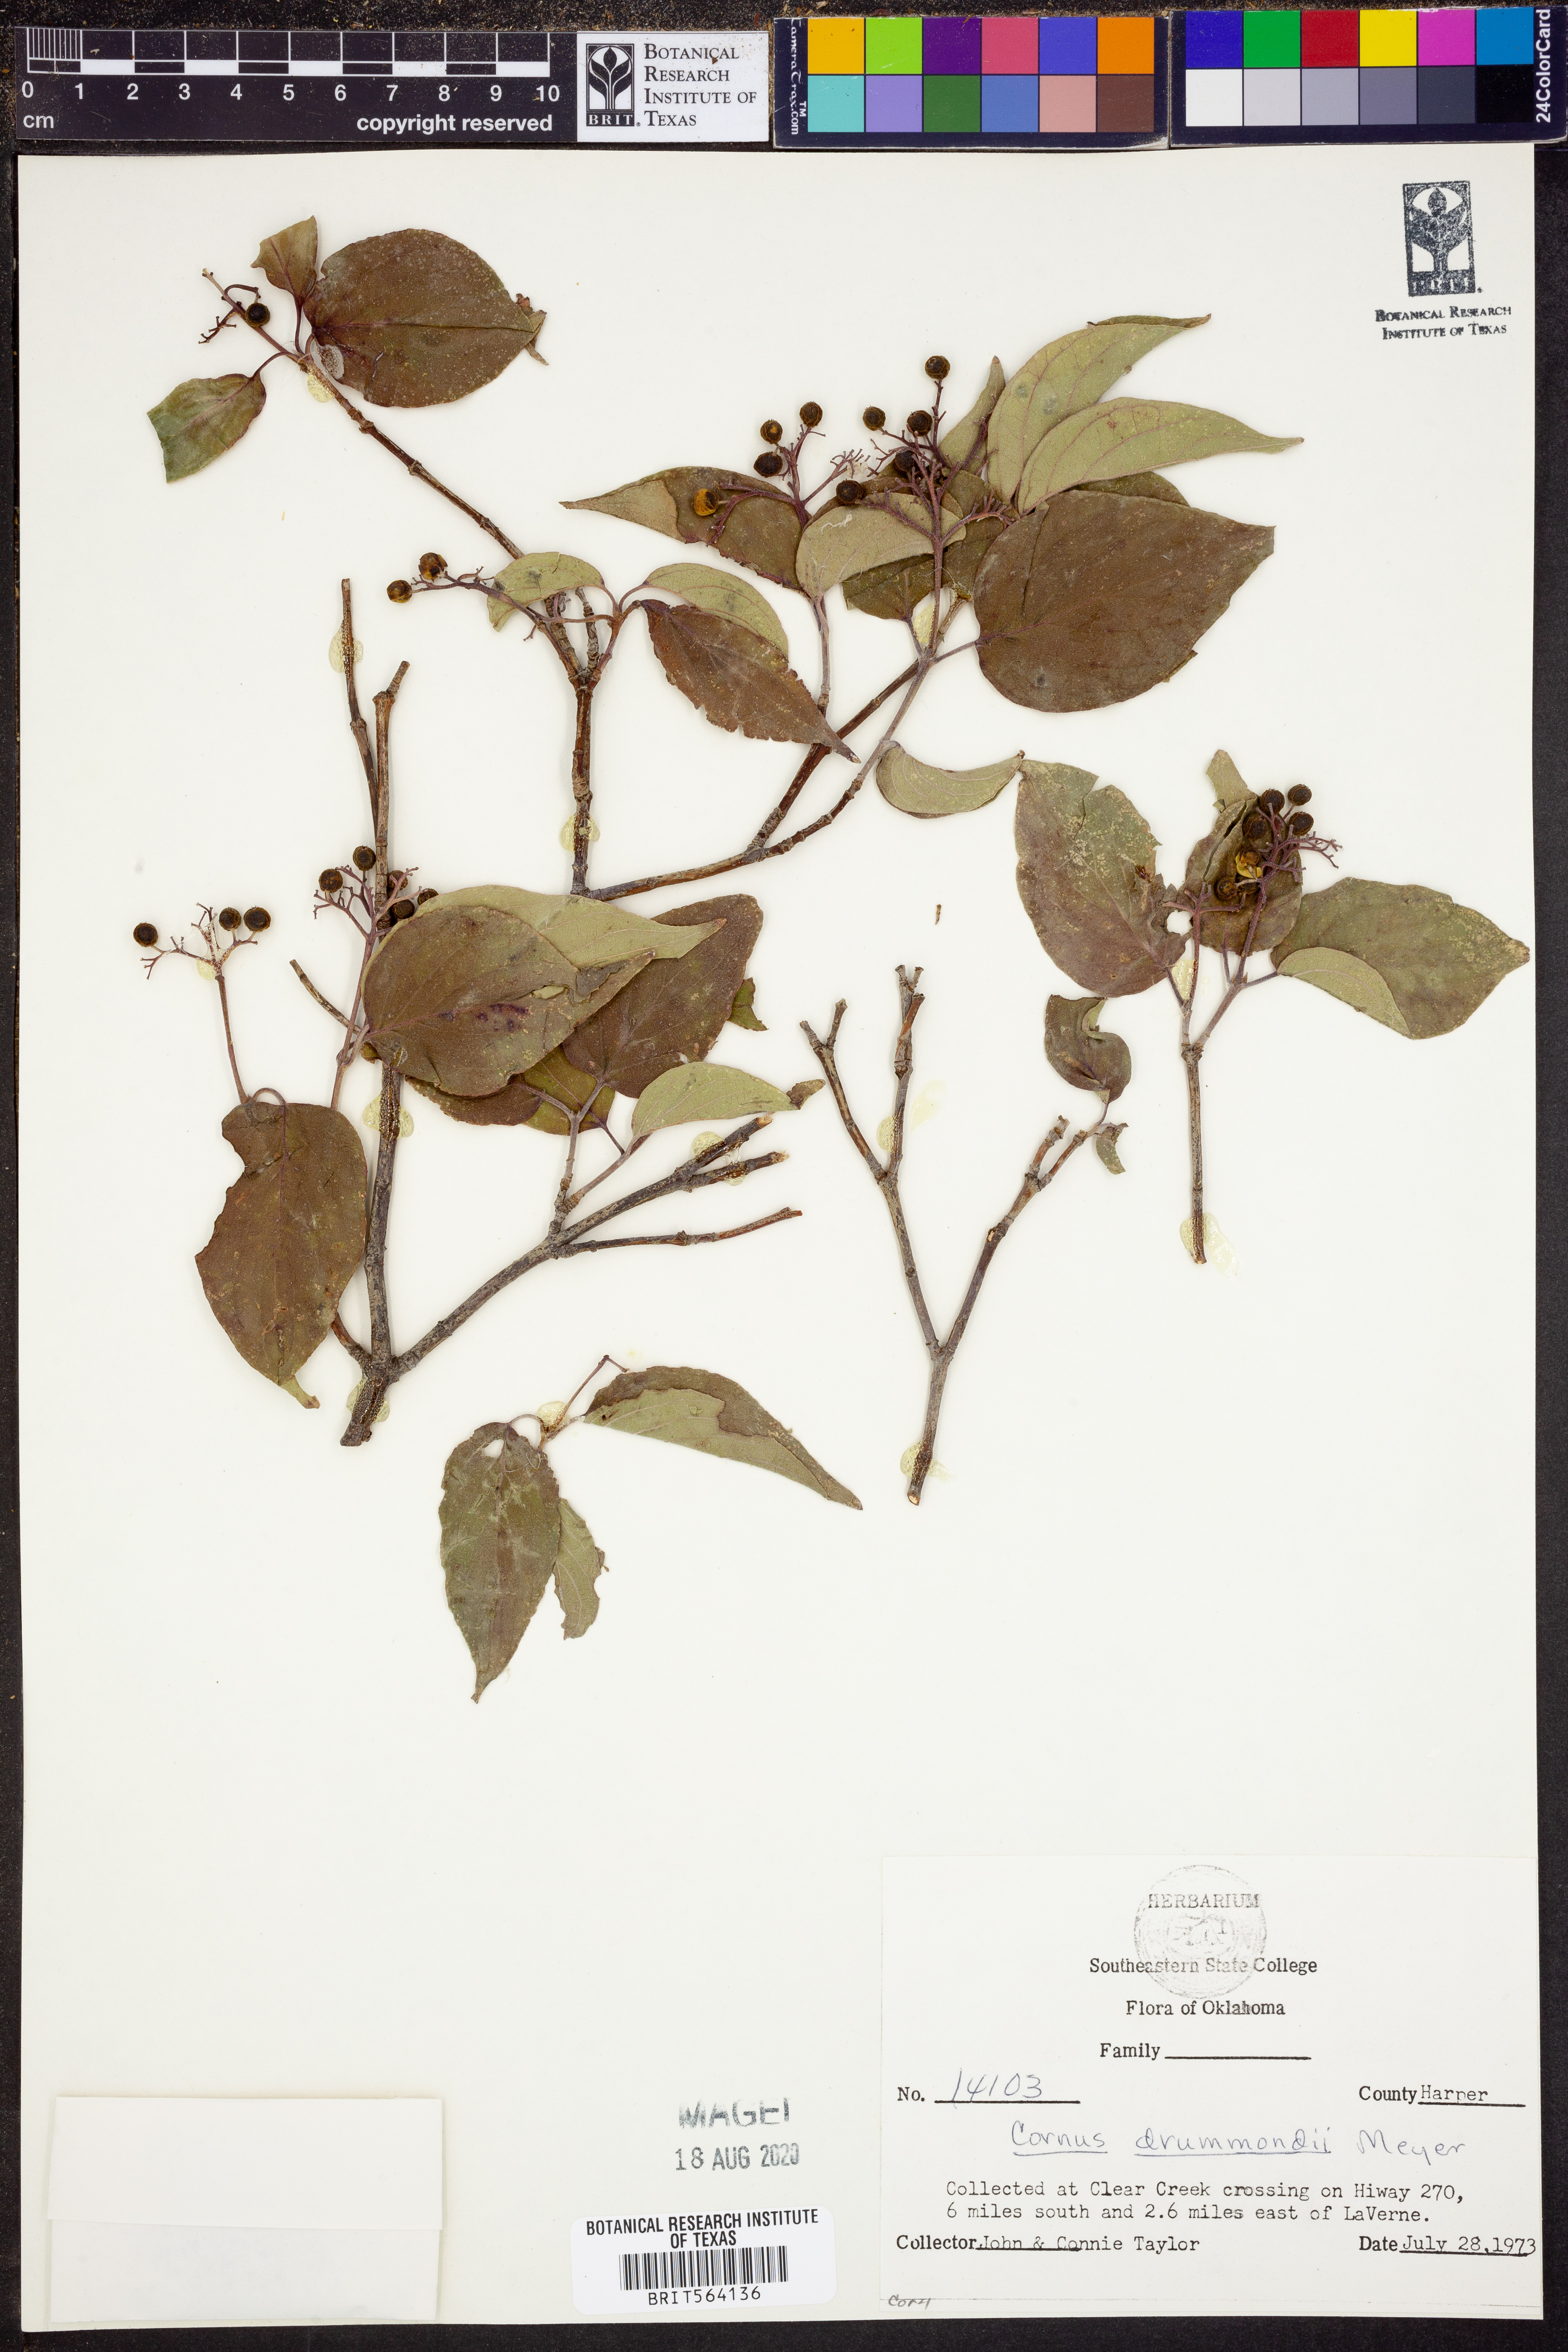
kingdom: Plantae
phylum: Tracheophyta
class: Magnoliopsida
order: Cornales
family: Cornaceae
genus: Cornus
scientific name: Cornus drummondii
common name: Rough-leaf dogwood
